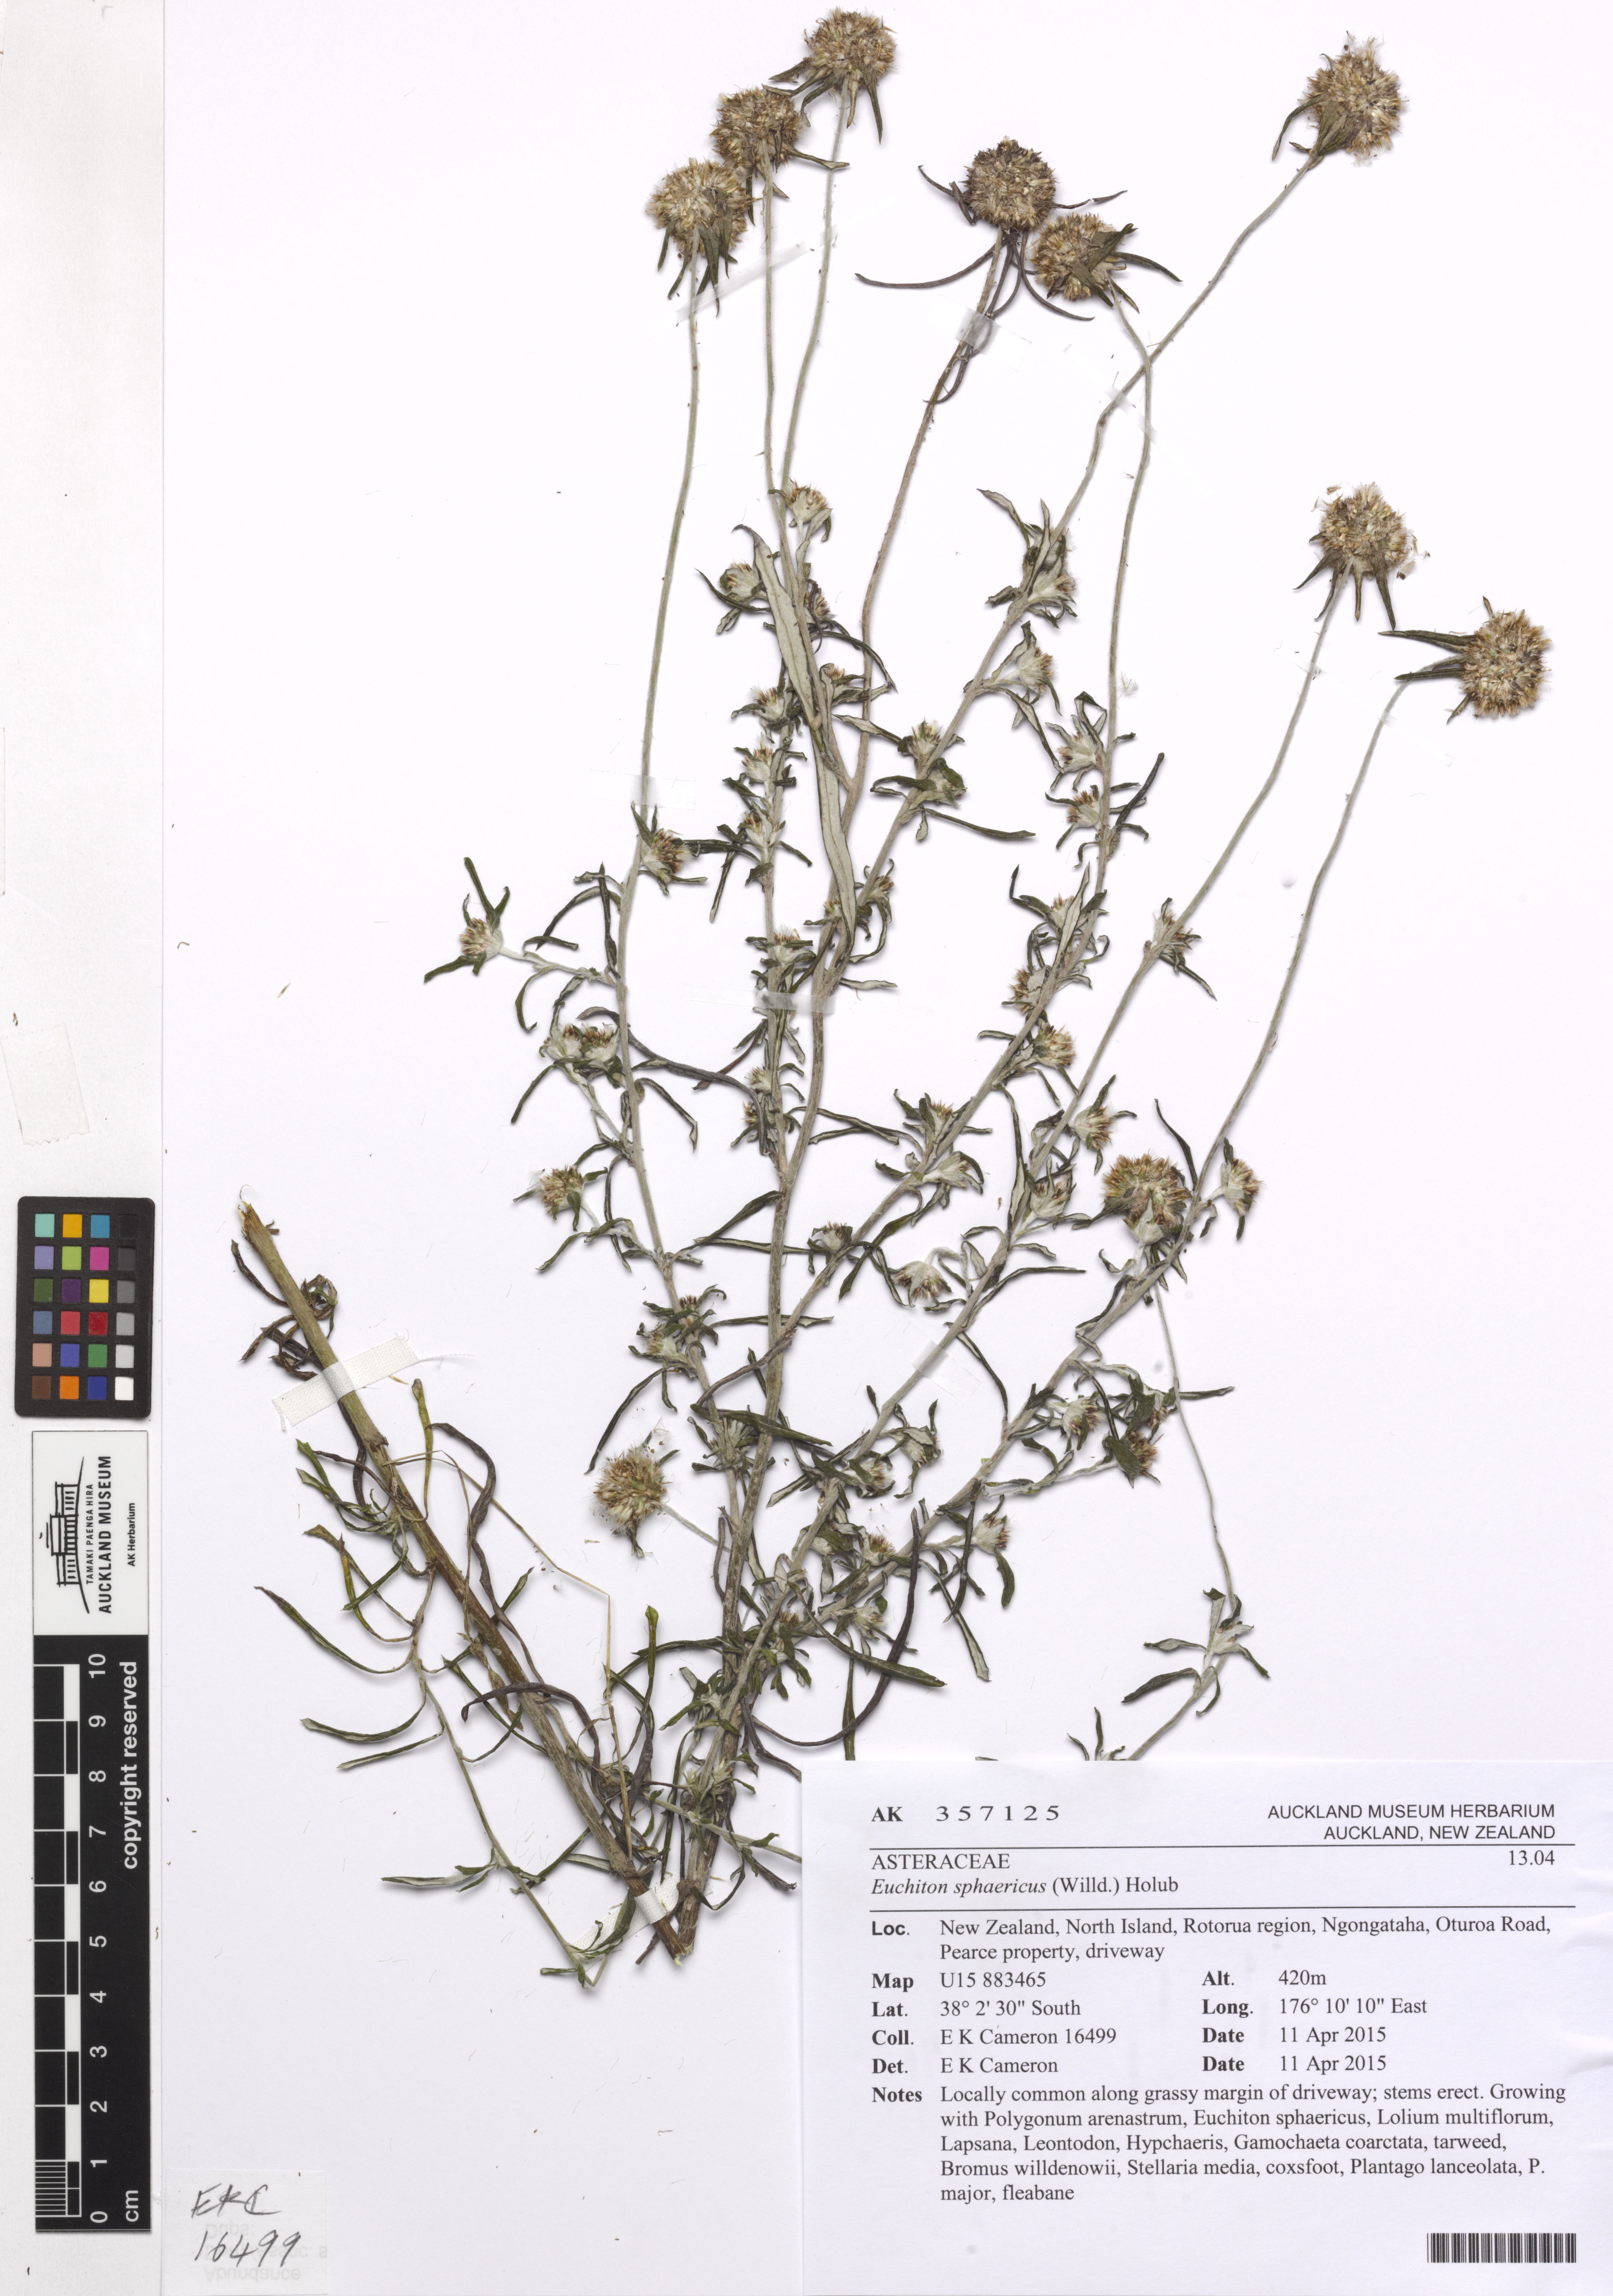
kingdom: Plantae
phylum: Tracheophyta
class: Magnoliopsida
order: Asterales
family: Asteraceae
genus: Euchiton
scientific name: Euchiton sphaericus
